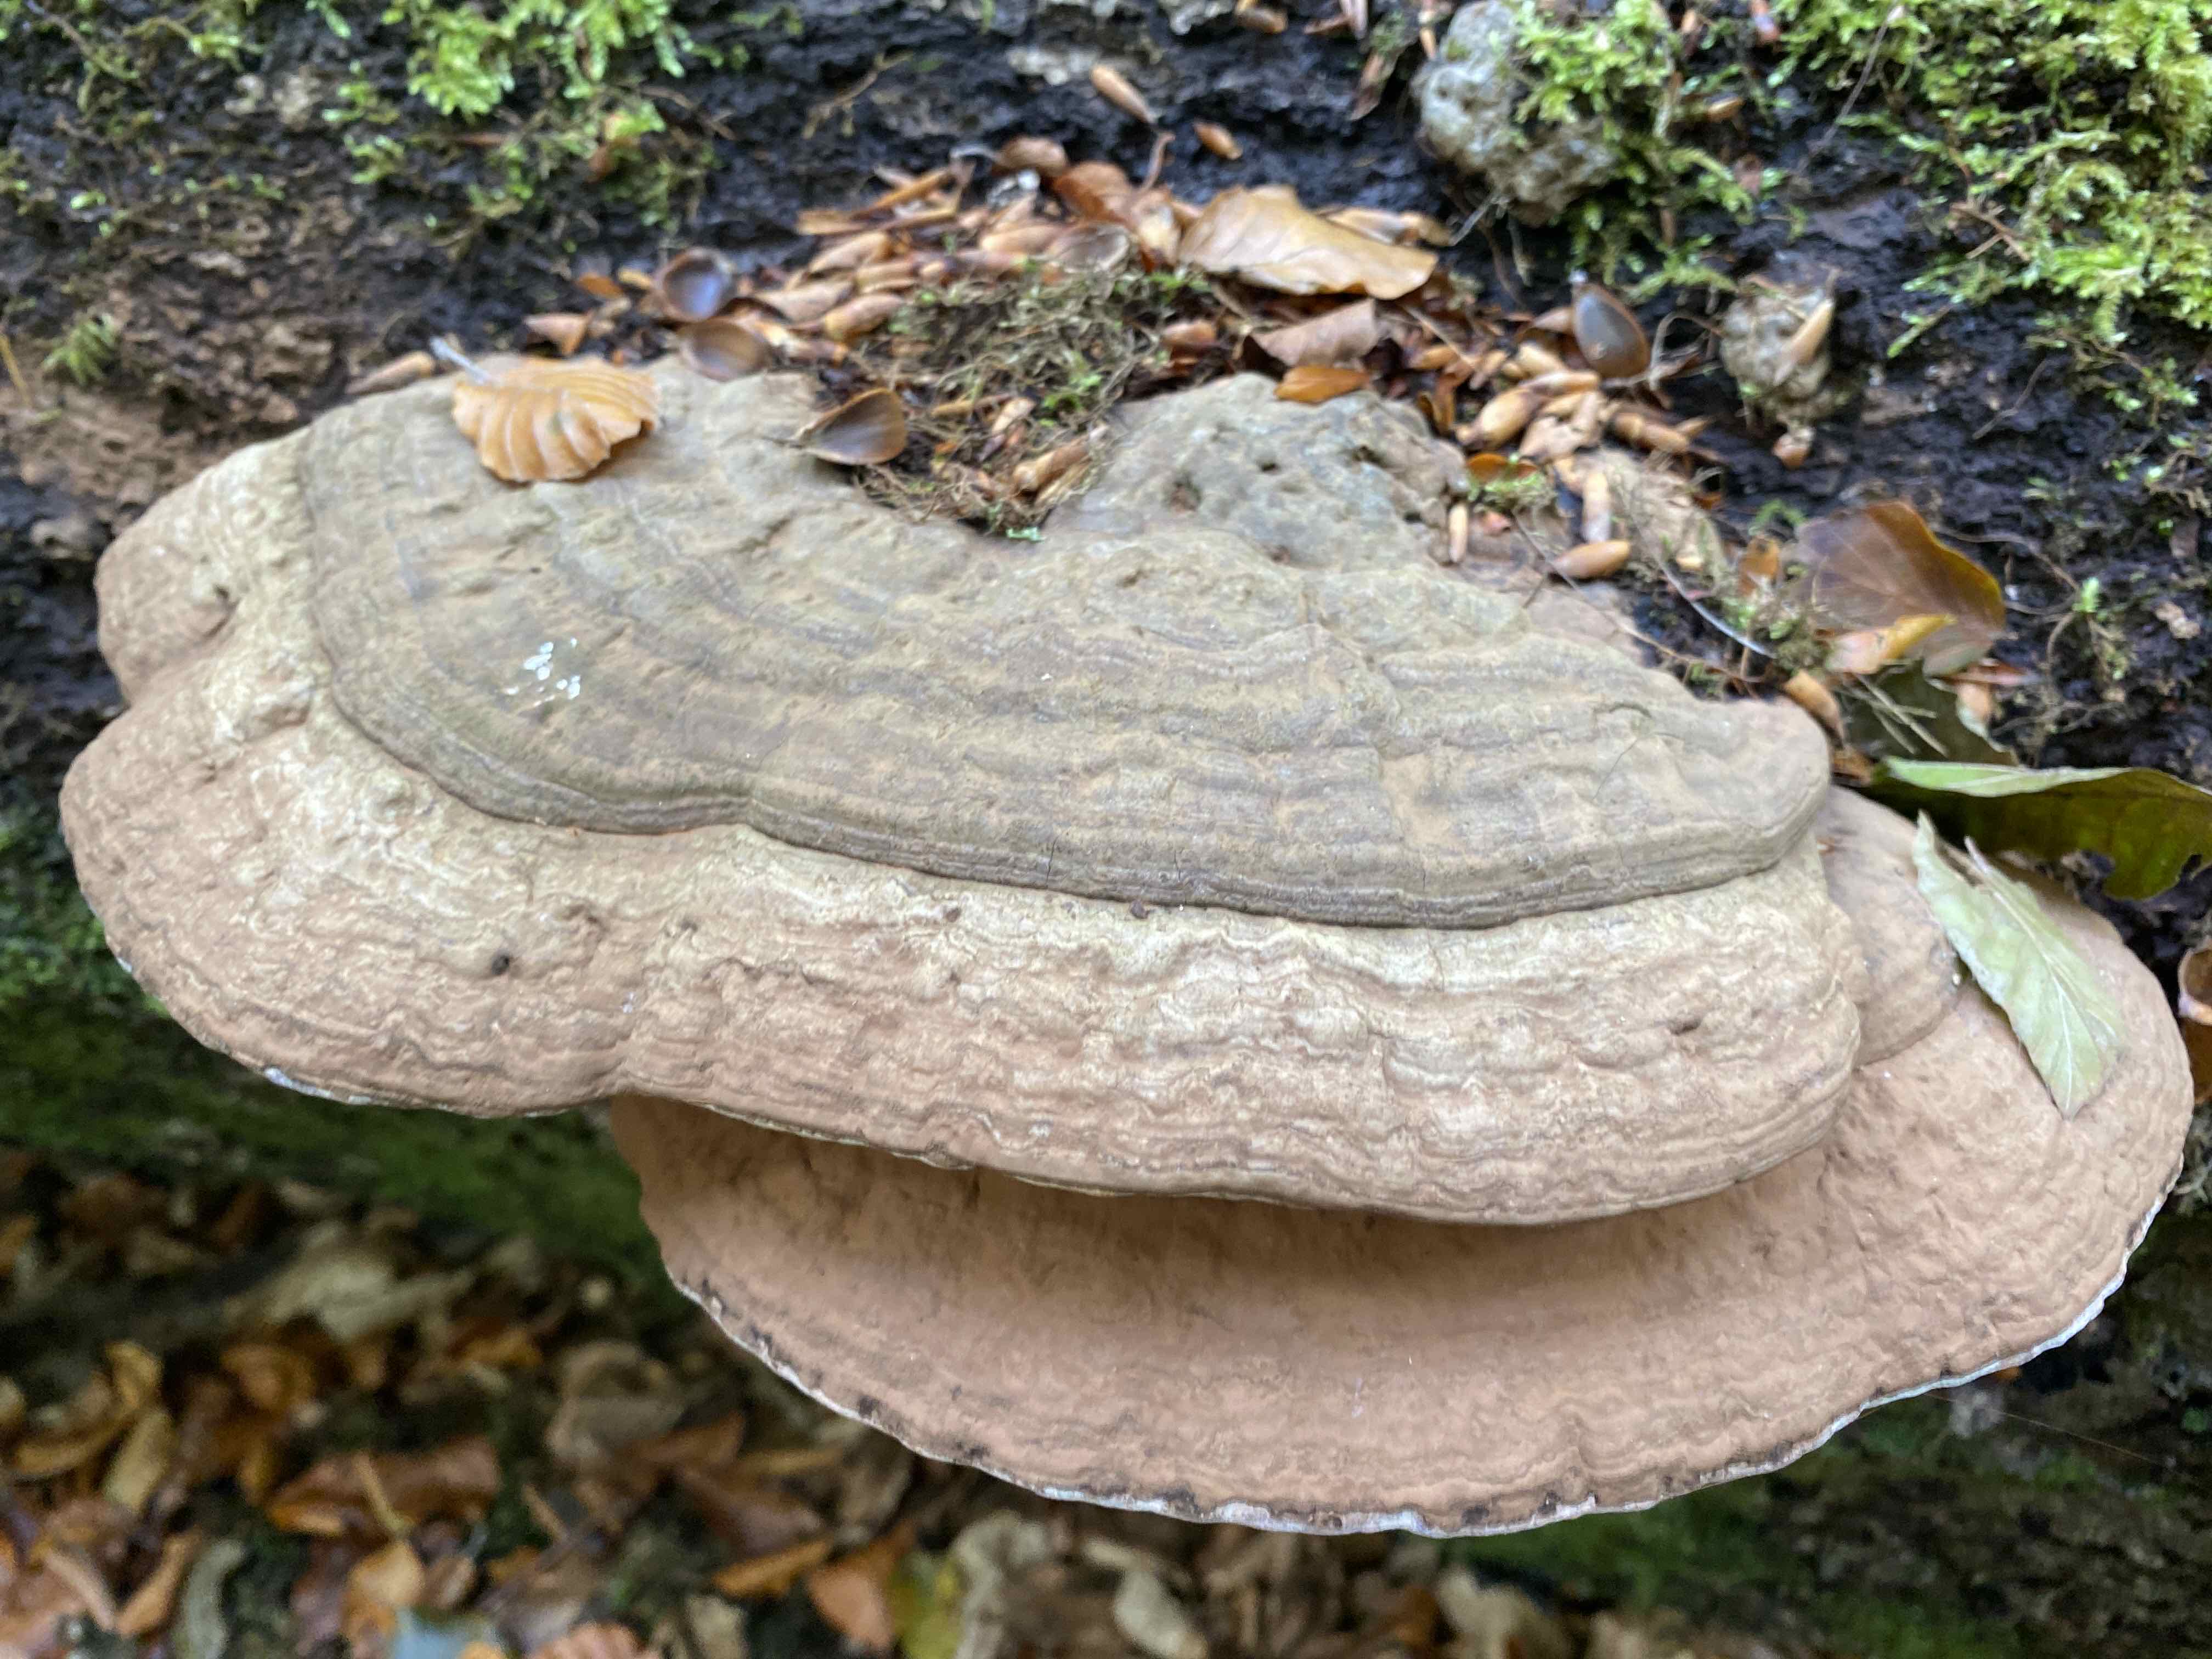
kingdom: Fungi
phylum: Basidiomycota
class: Agaricomycetes
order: Polyporales
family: Polyporaceae
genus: Ganoderma
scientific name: Ganoderma applanatum
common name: flad lakporesvamp
